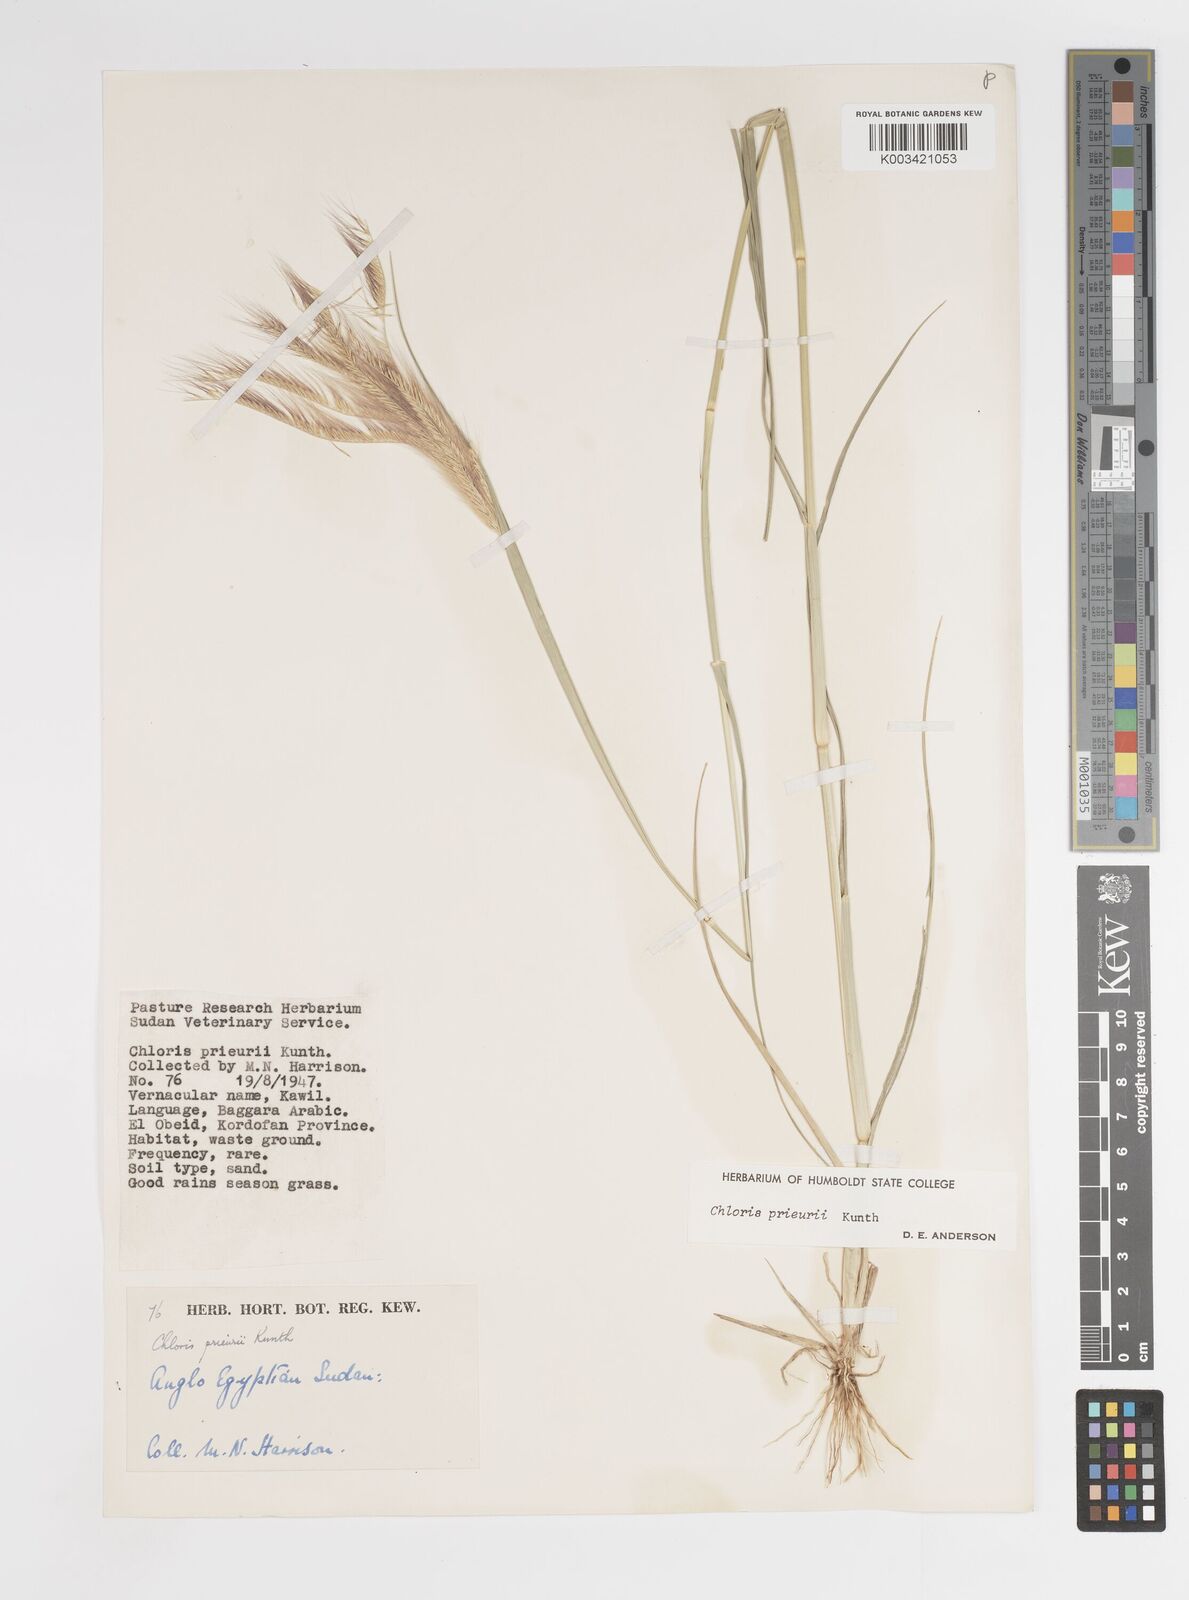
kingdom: Plantae
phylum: Tracheophyta
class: Liliopsida
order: Poales
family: Poaceae
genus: Enteropogon
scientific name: Enteropogon prieurii
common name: Prieur's umbrellagrass
